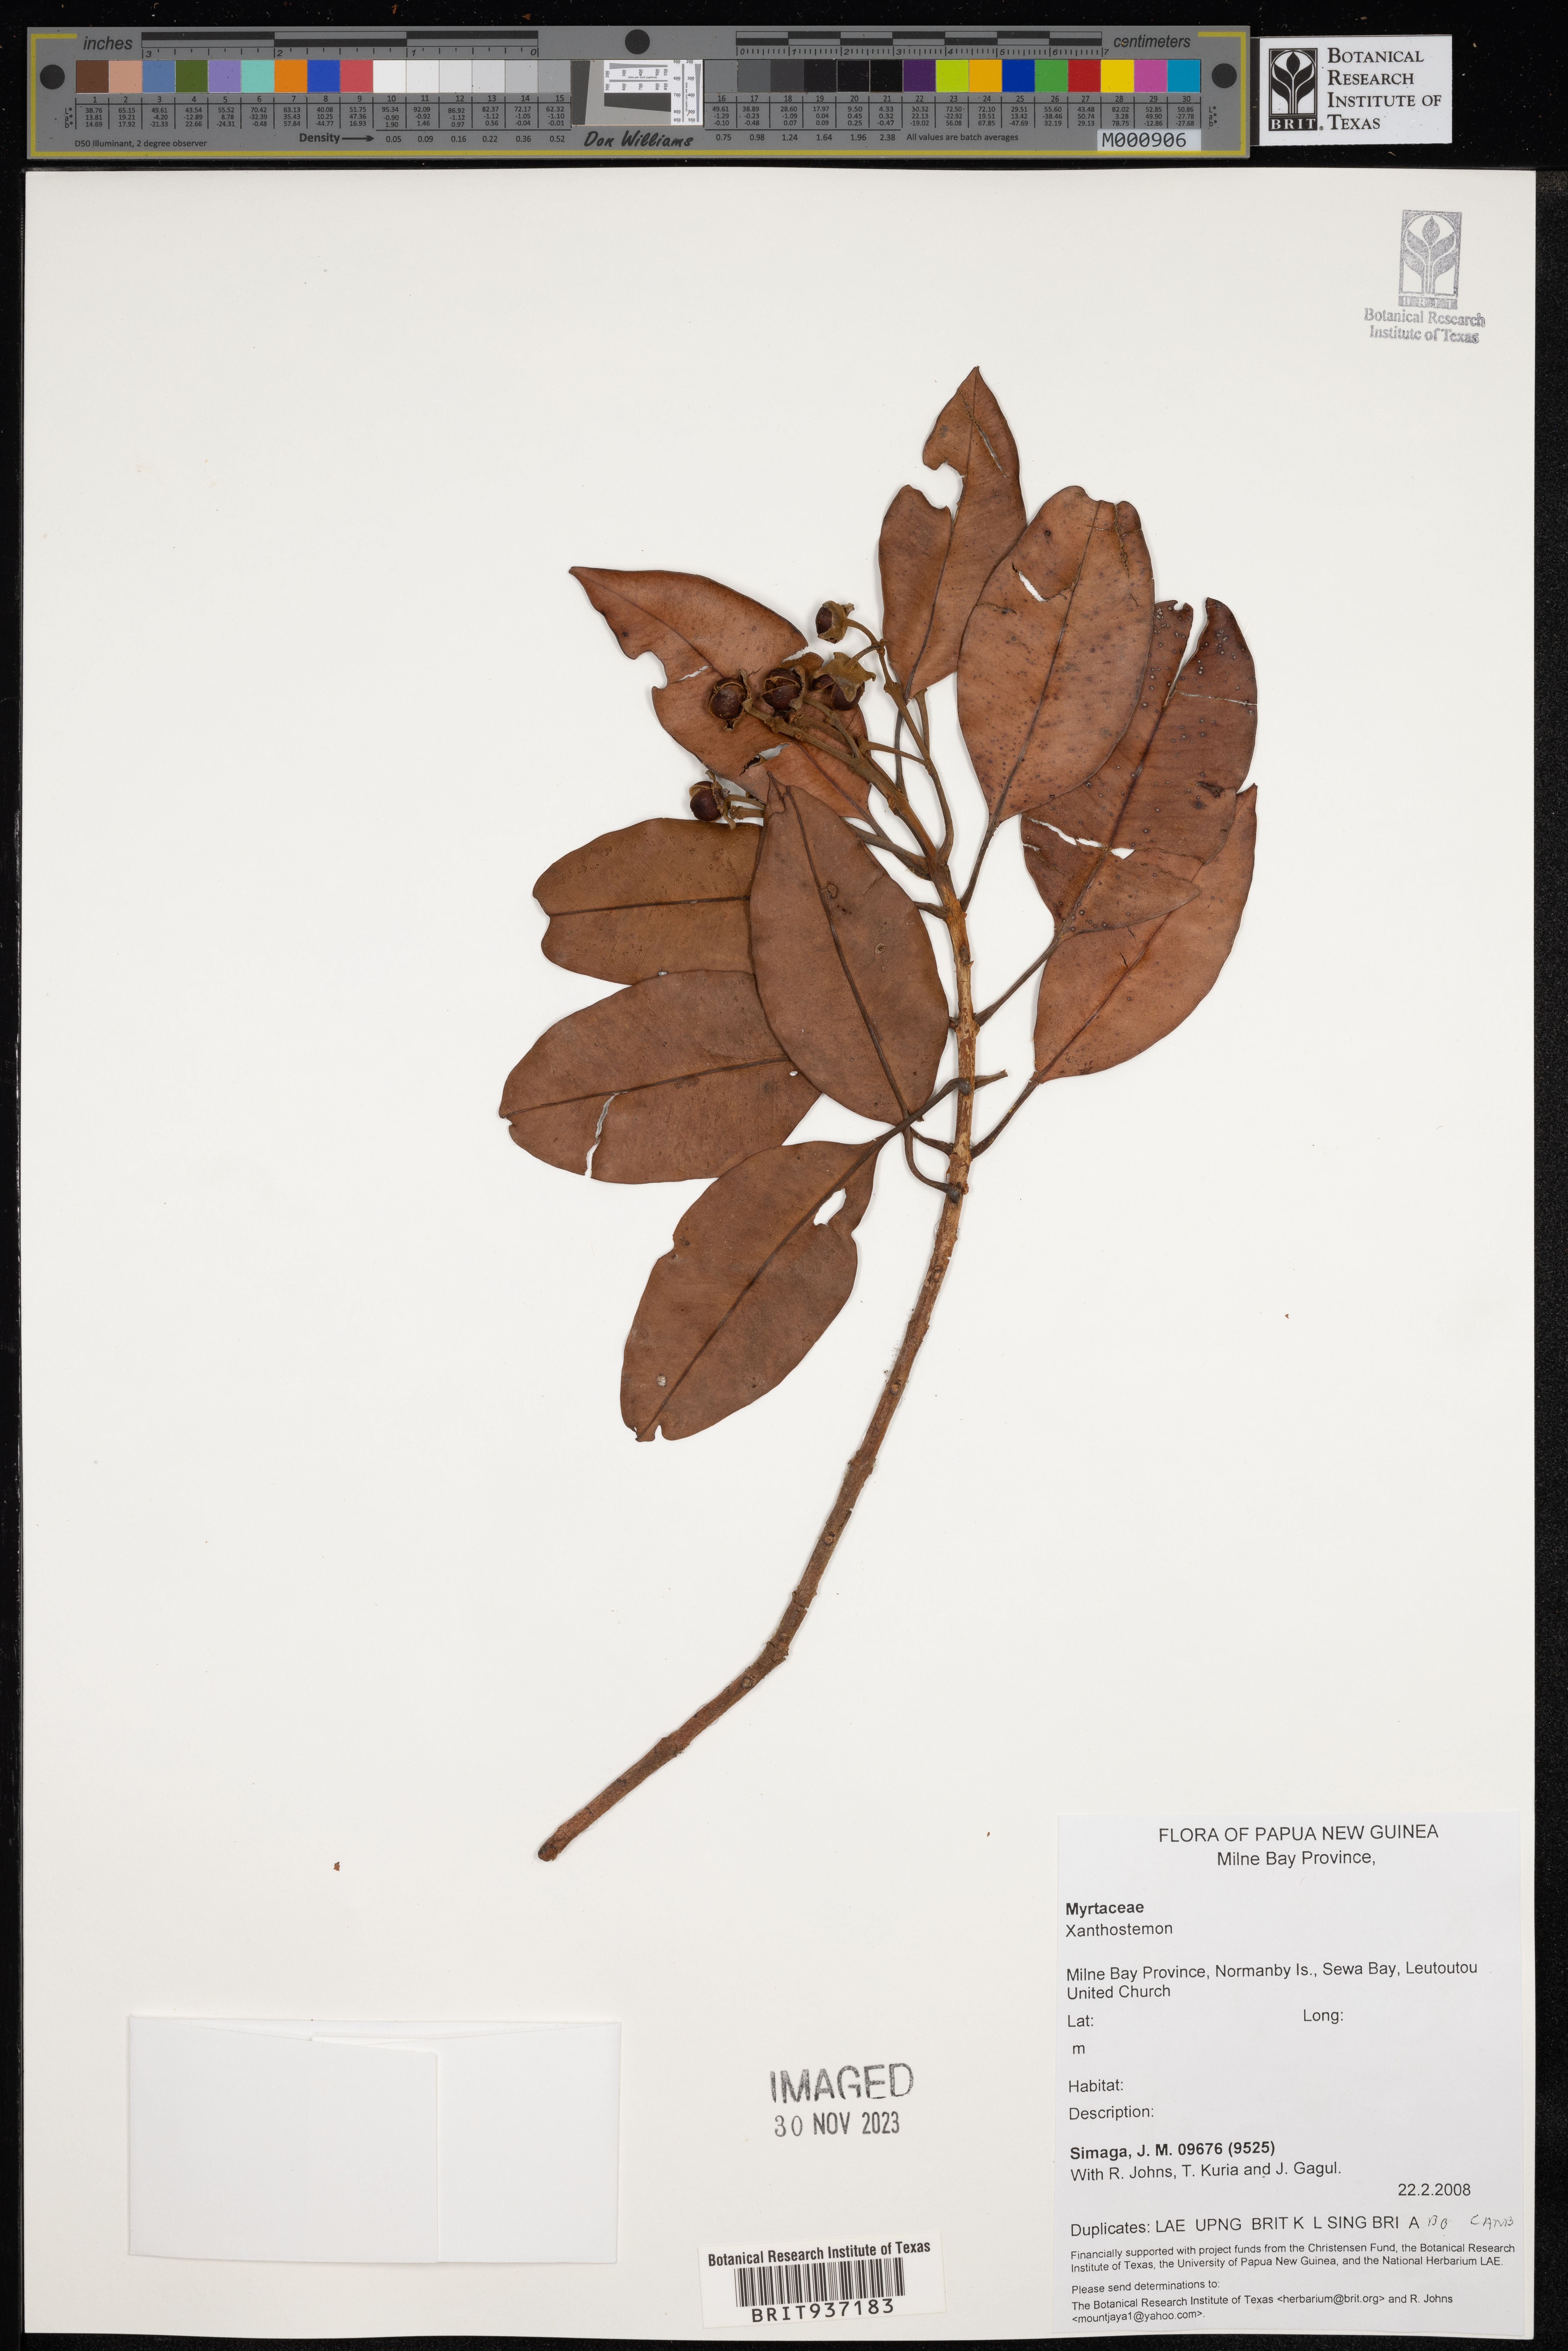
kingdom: Plantae
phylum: Tracheophyta
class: Magnoliopsida
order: Myrtales
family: Myrtaceae
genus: Xanthostemon
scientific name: Xanthostemon
